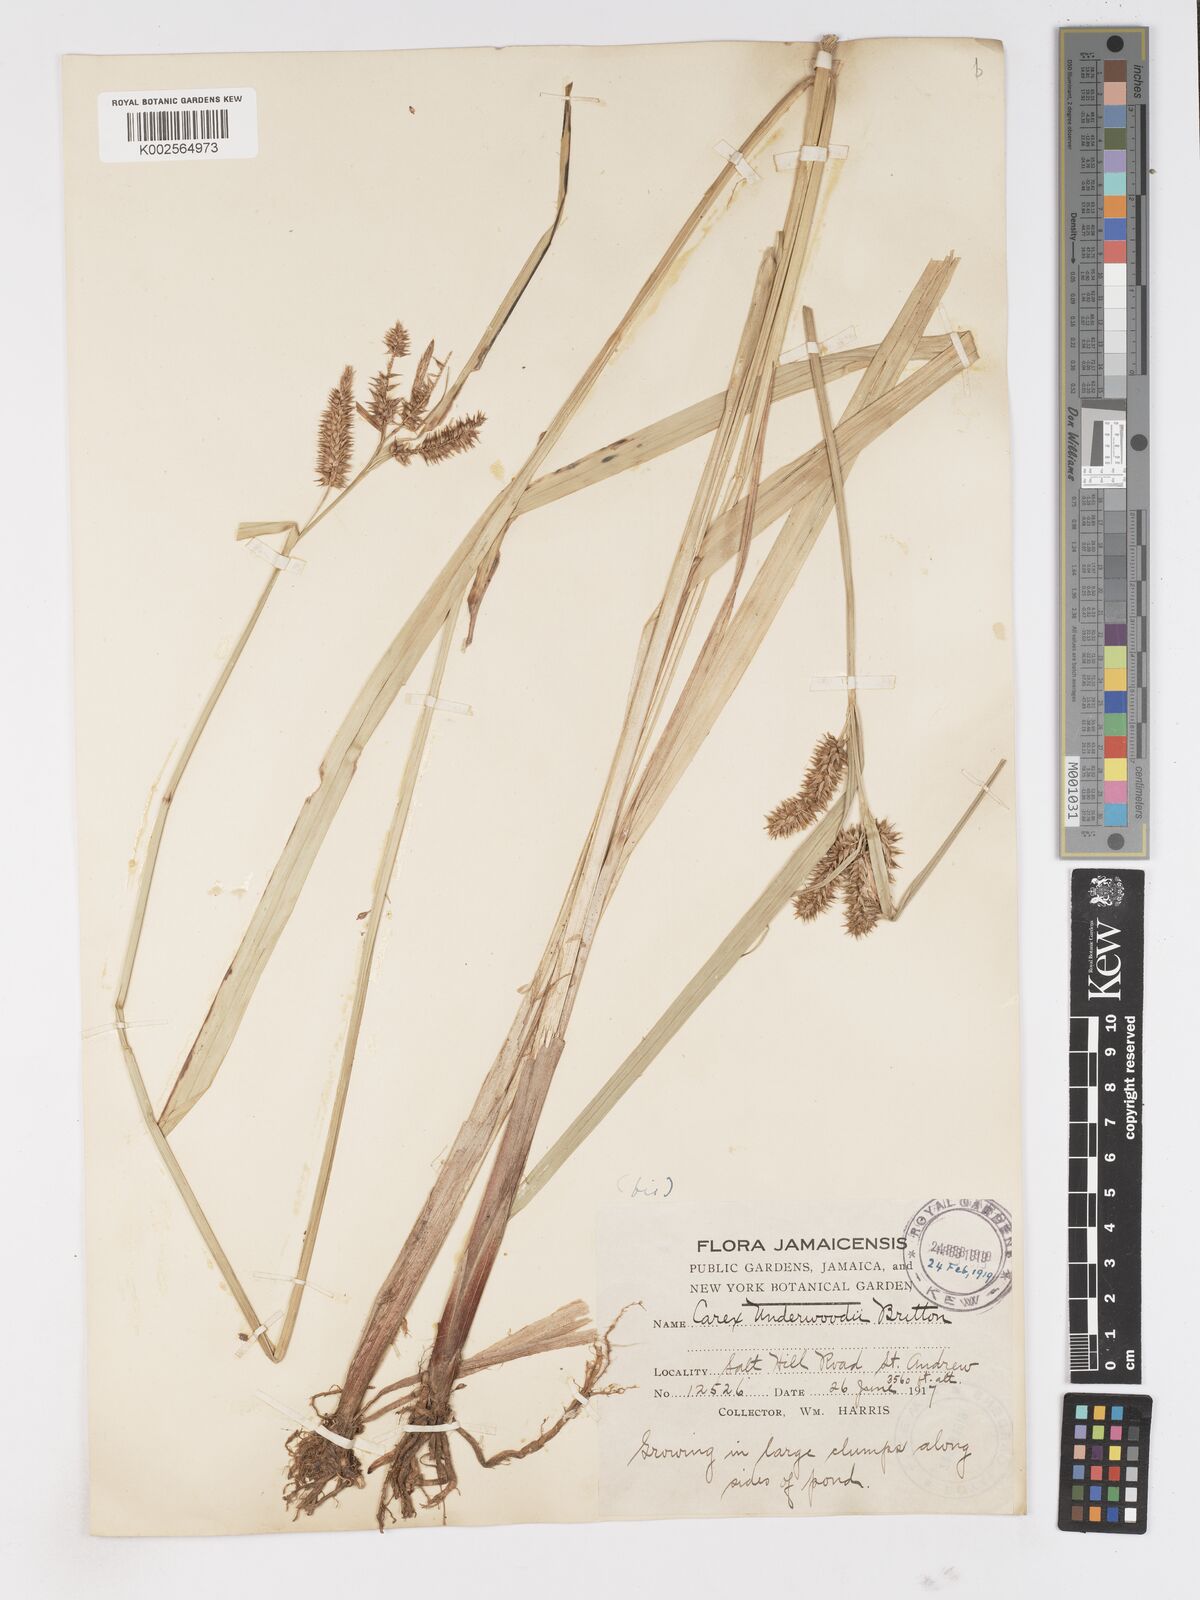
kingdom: Plantae
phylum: Tracheophyta
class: Liliopsida
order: Poales
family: Cyperaceae
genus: Carex
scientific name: Carex polysticha
